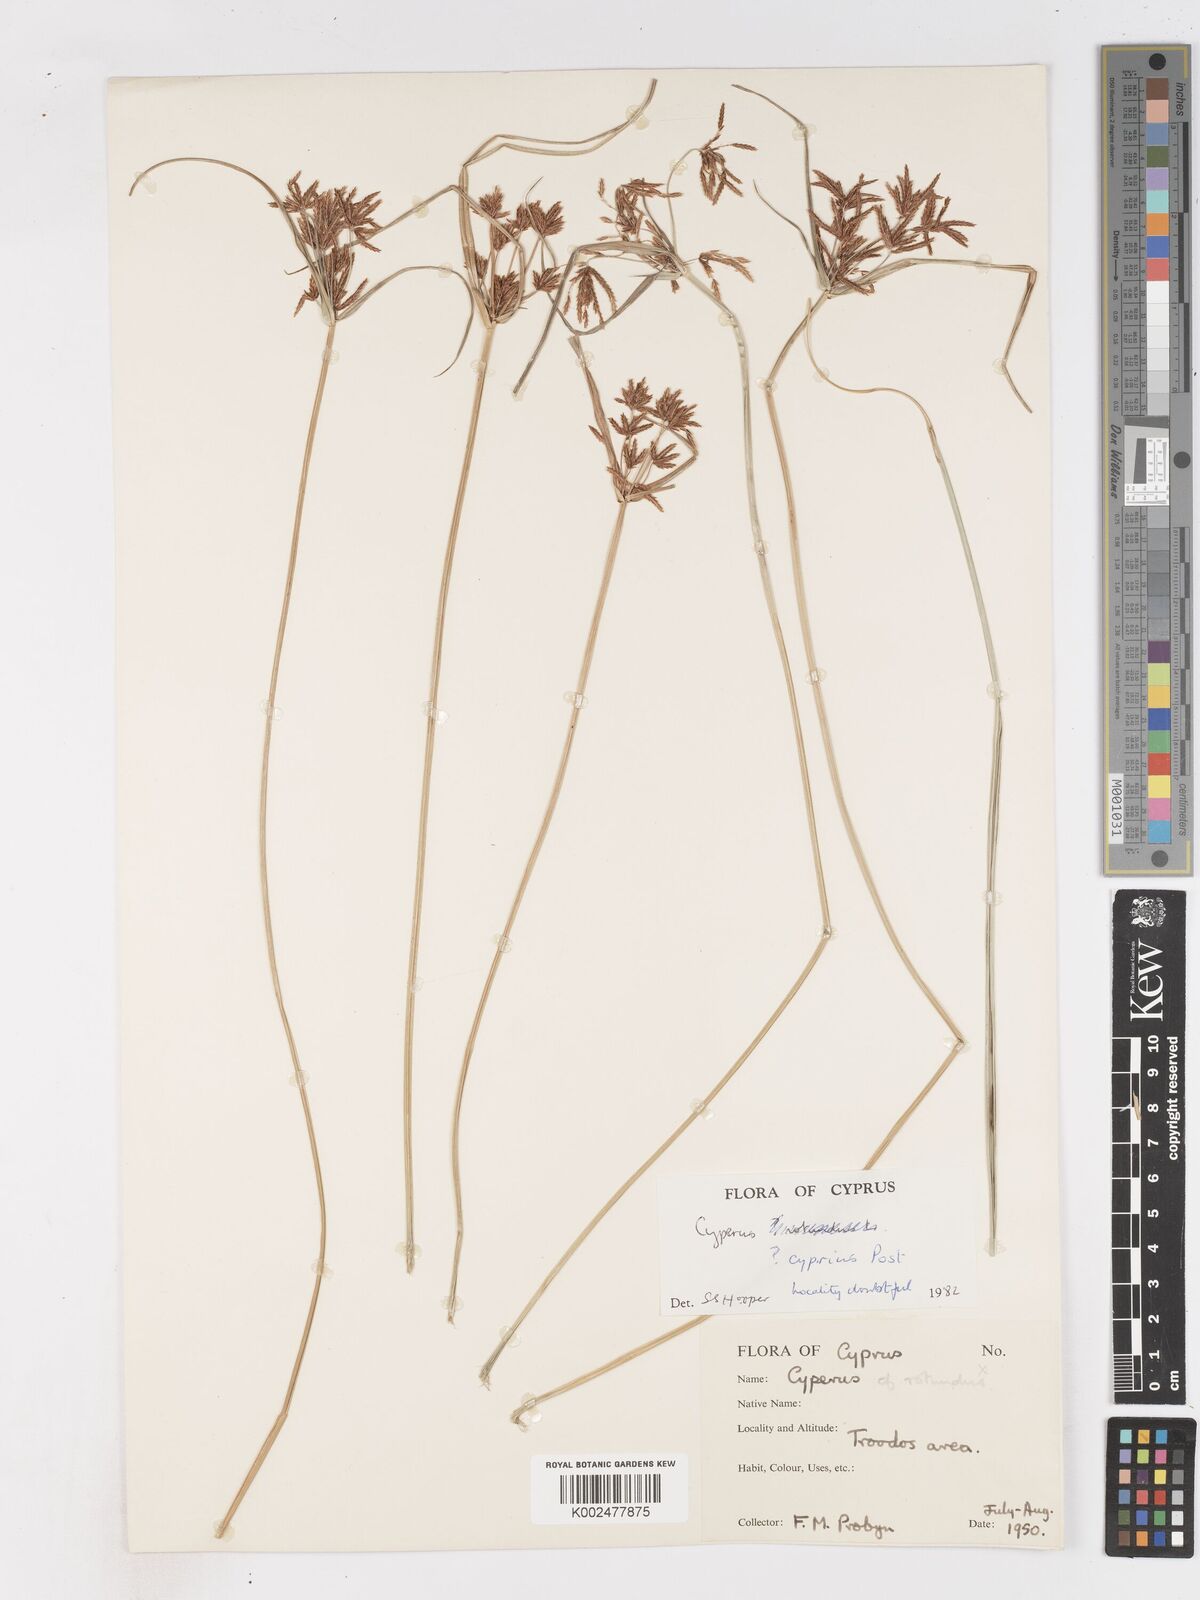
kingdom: Plantae
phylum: Tracheophyta
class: Liliopsida
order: Poales
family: Cyperaceae
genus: Cyperus
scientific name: Cyperus longus
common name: Galingale
